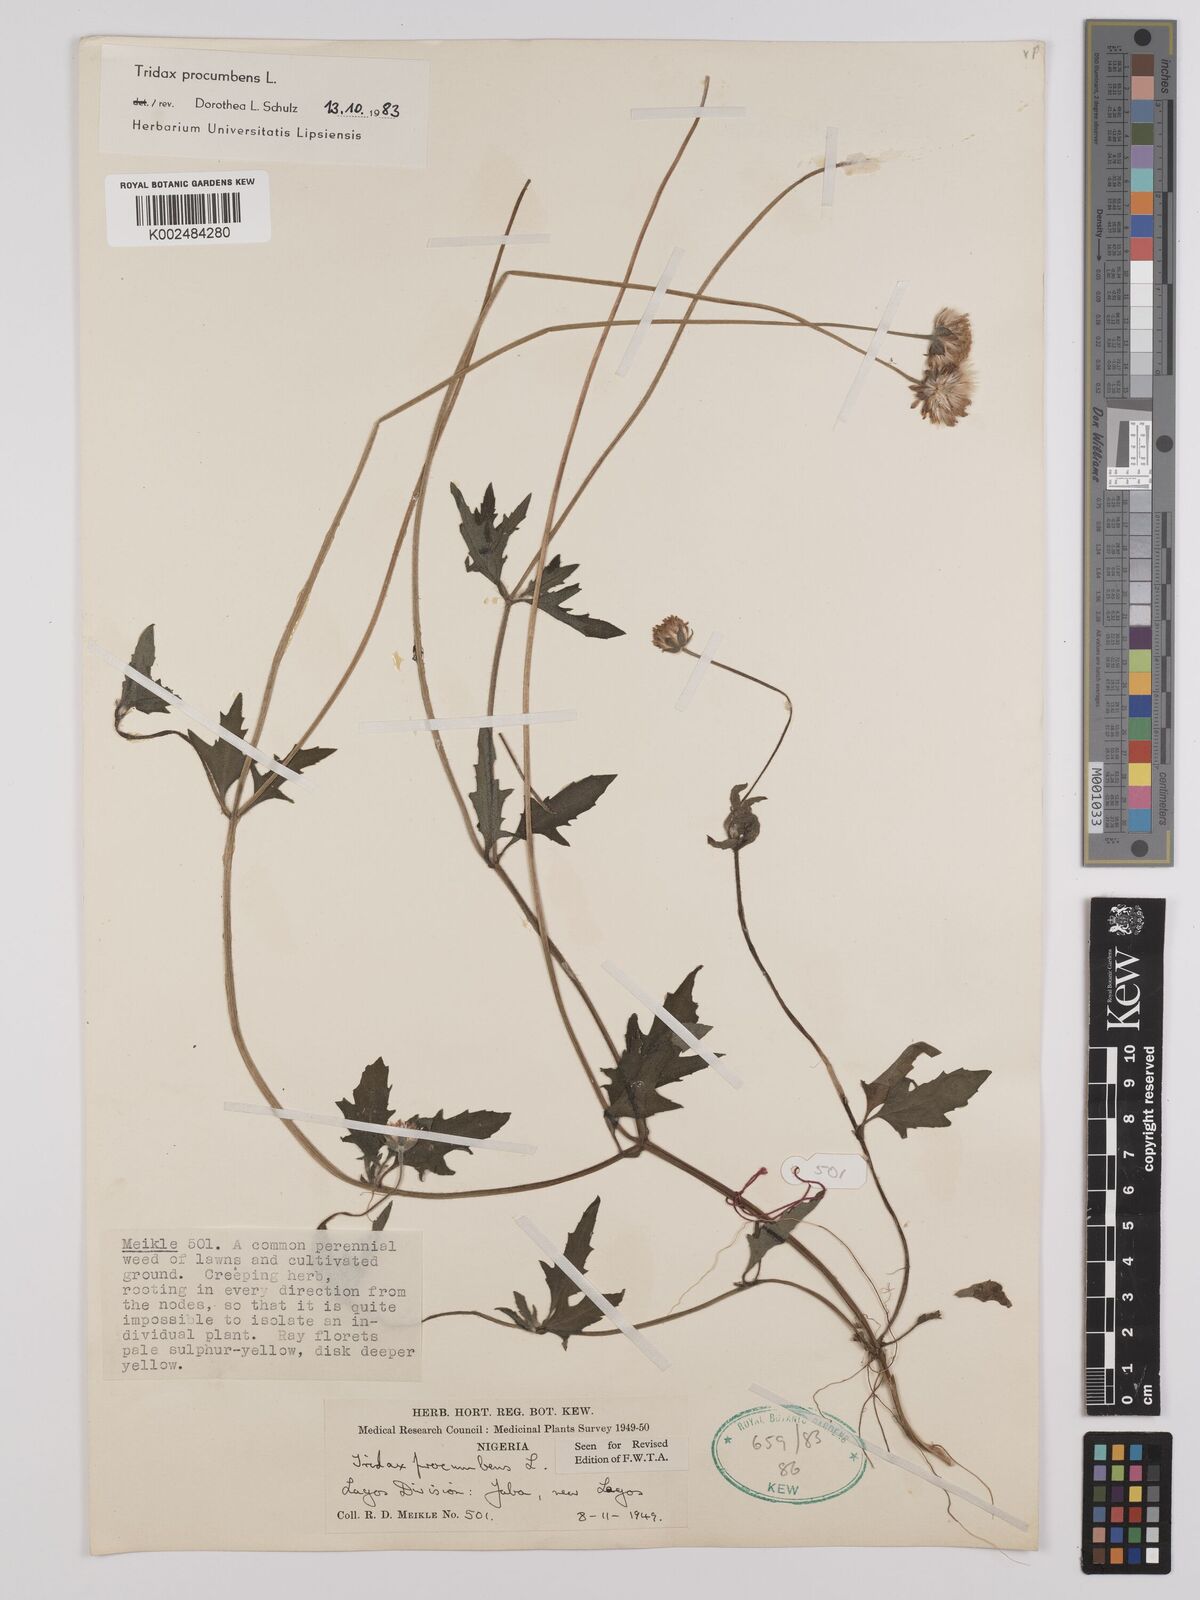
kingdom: Plantae
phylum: Tracheophyta
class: Magnoliopsida
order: Asterales
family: Asteraceae
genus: Tridax
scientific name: Tridax procumbens
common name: Coatbuttons
